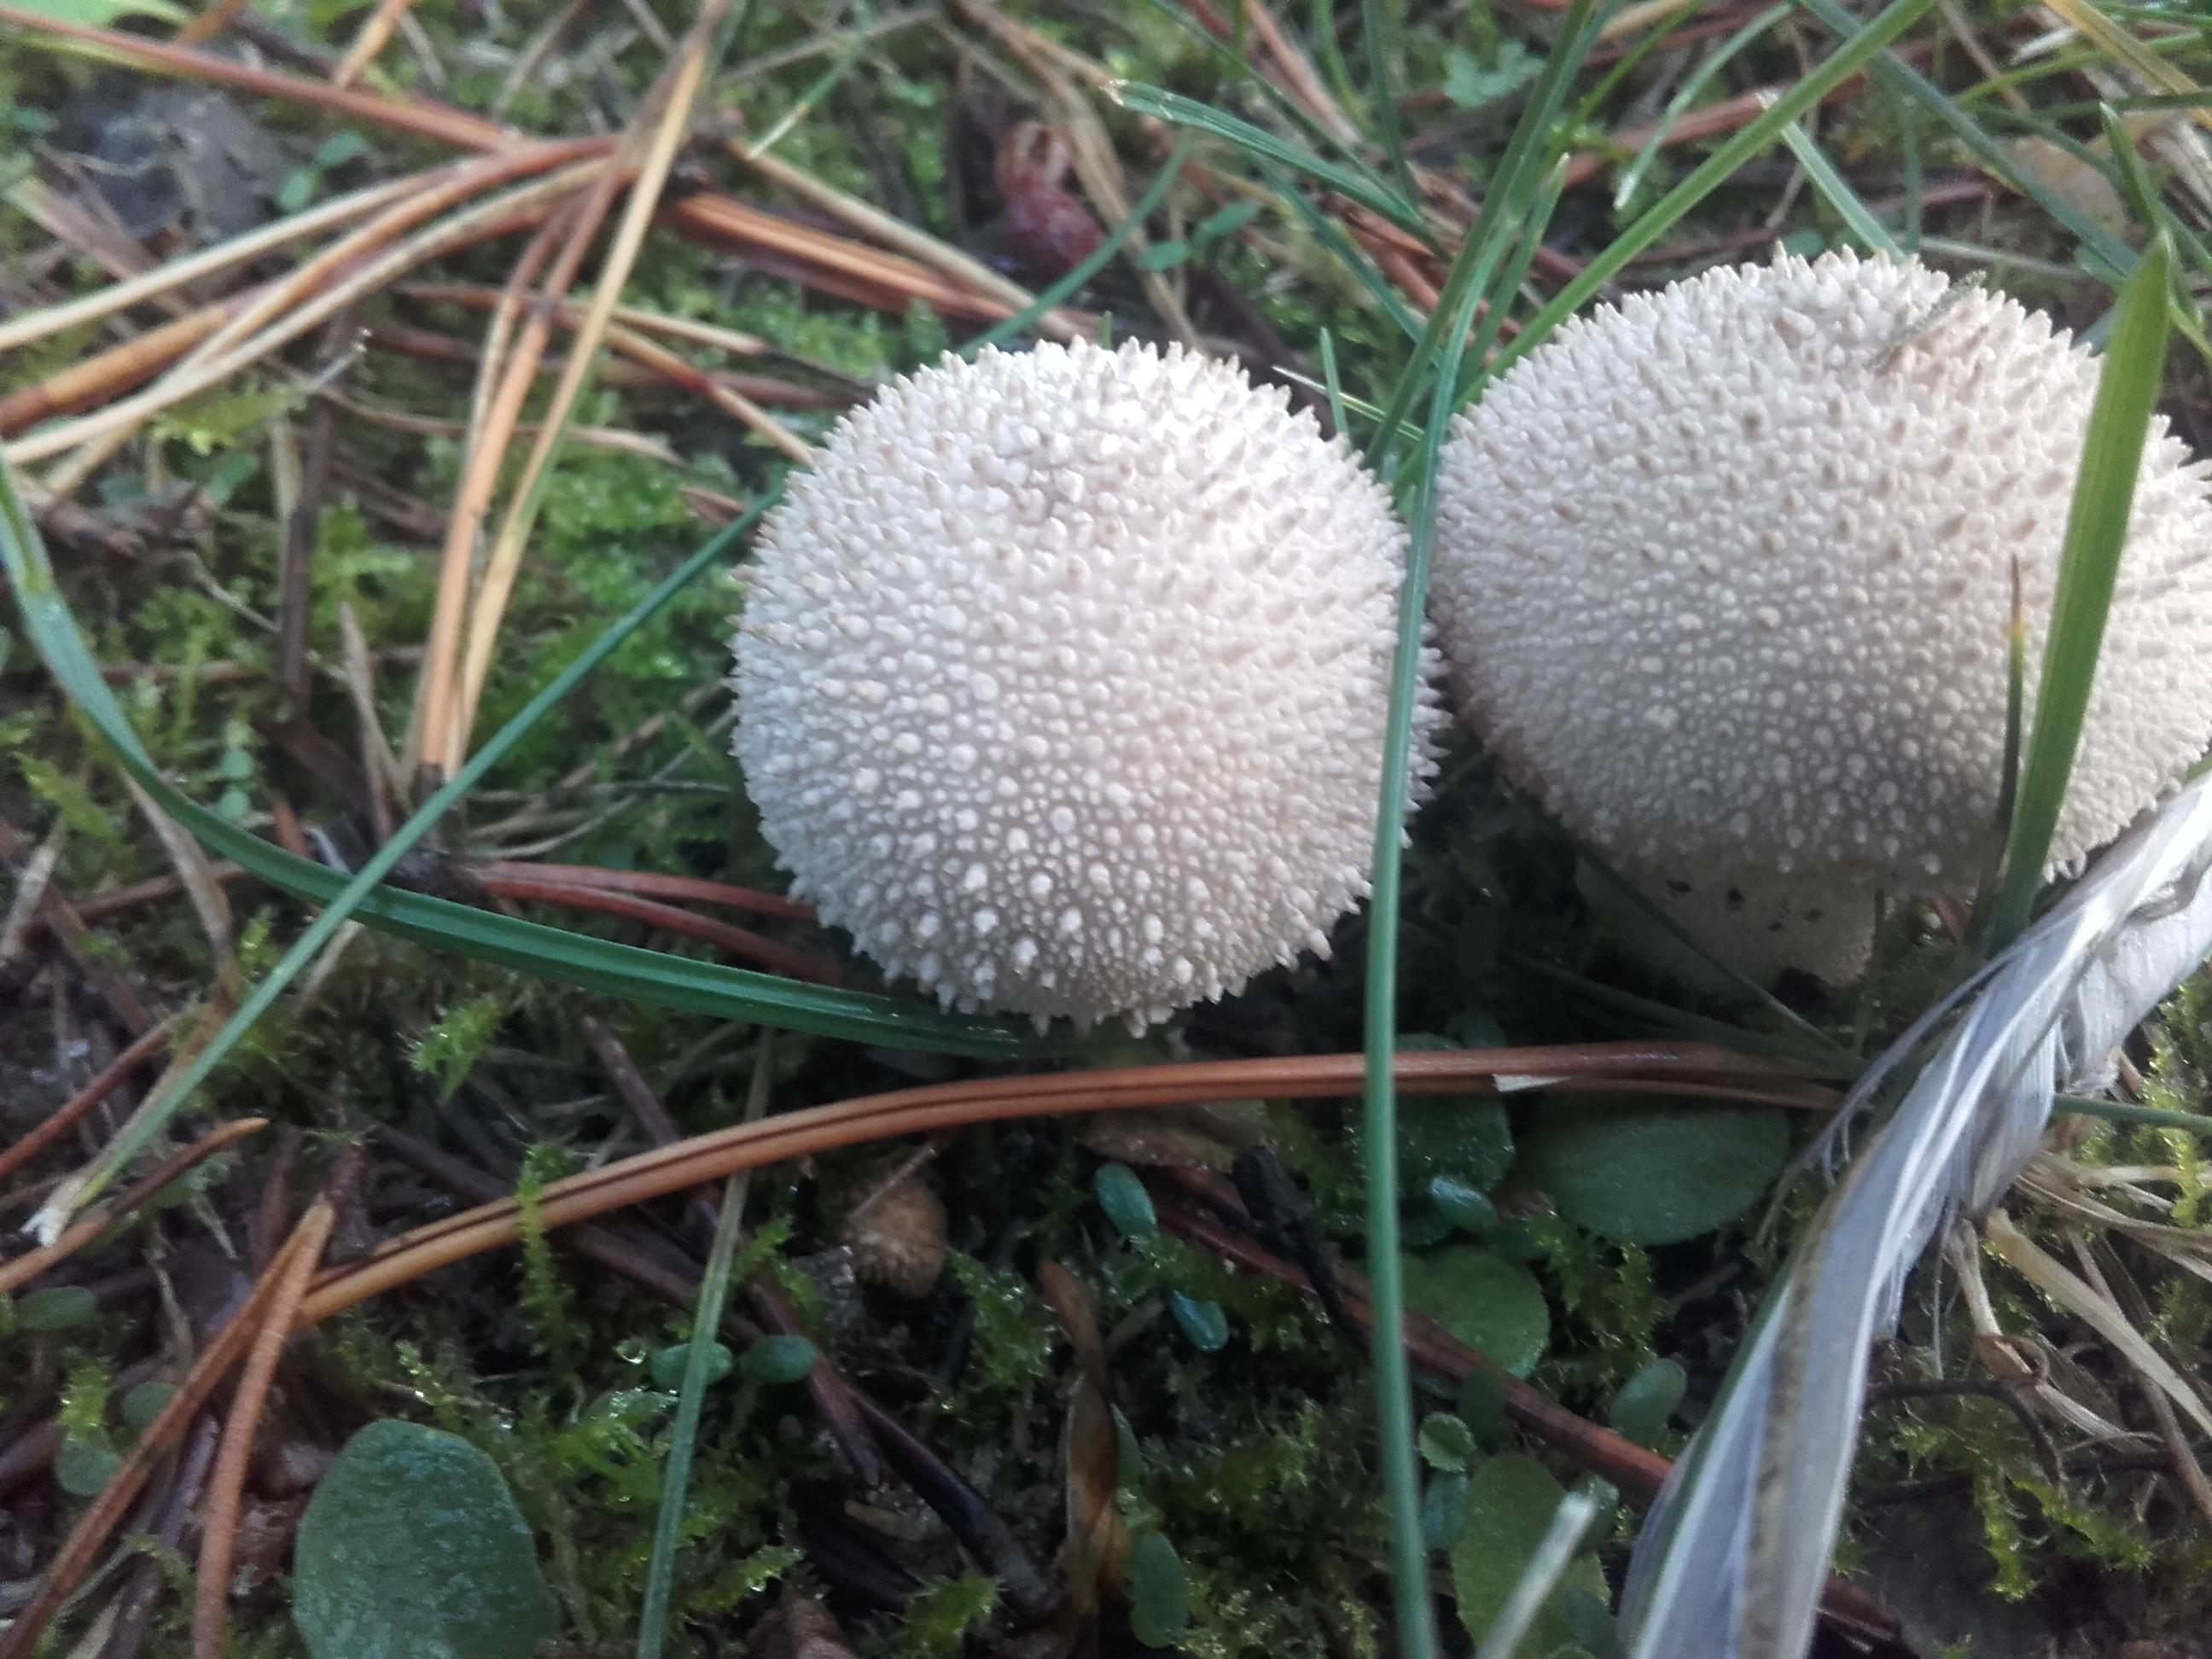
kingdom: Fungi
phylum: Basidiomycota
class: Agaricomycetes
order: Agaricales
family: Lycoperdaceae
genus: Lycoperdon
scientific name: Lycoperdon perlatum
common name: krystal-støvbold
